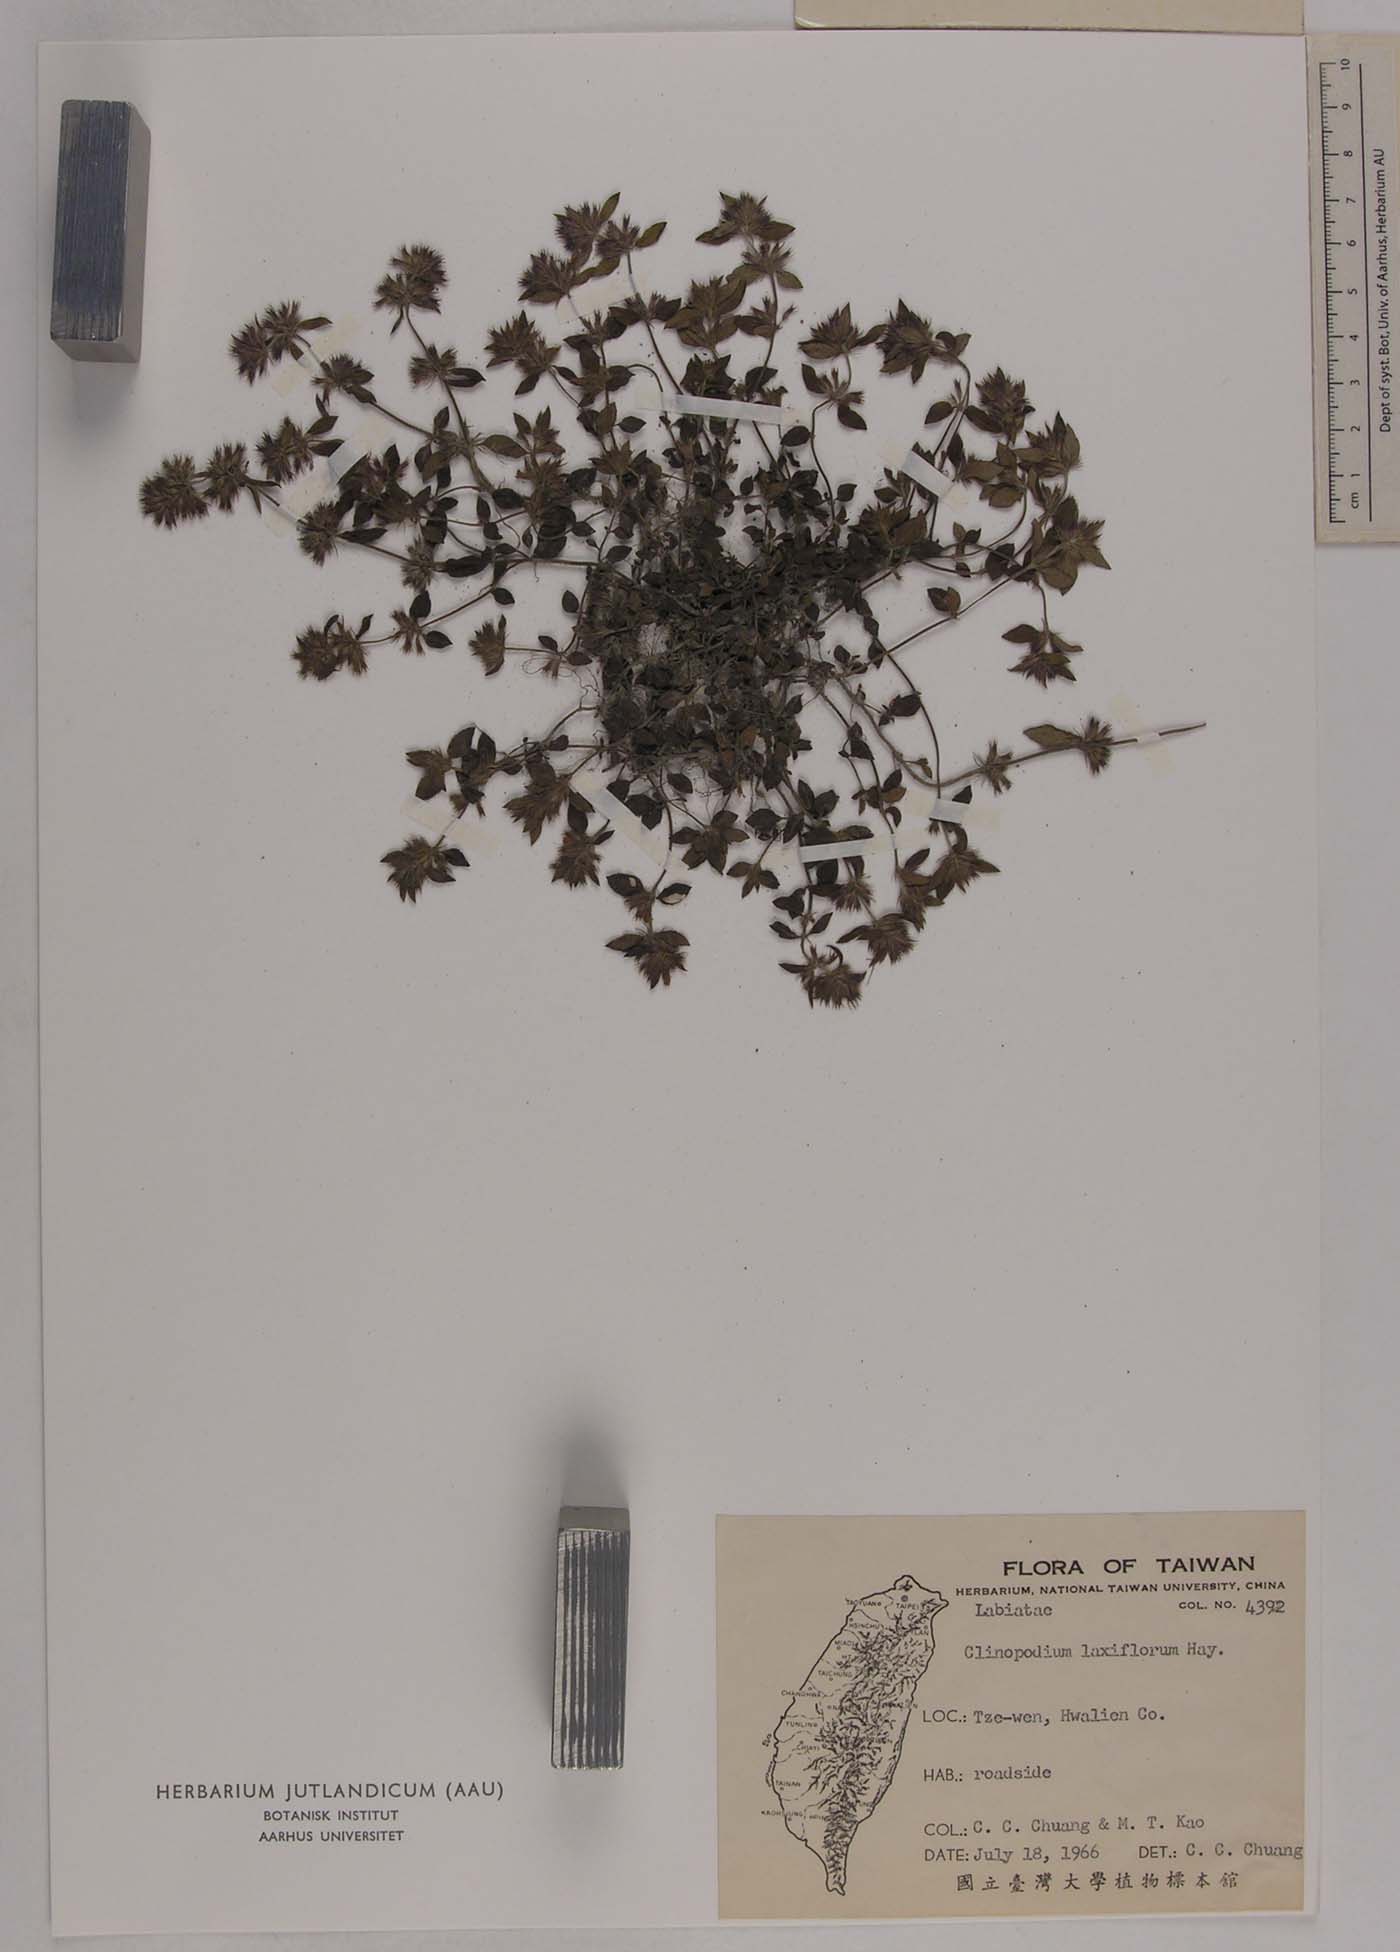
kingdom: Plantae
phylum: Tracheophyta
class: Magnoliopsida
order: Lamiales
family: Lamiaceae
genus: Clinopodium
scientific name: Clinopodium laxiflorum
